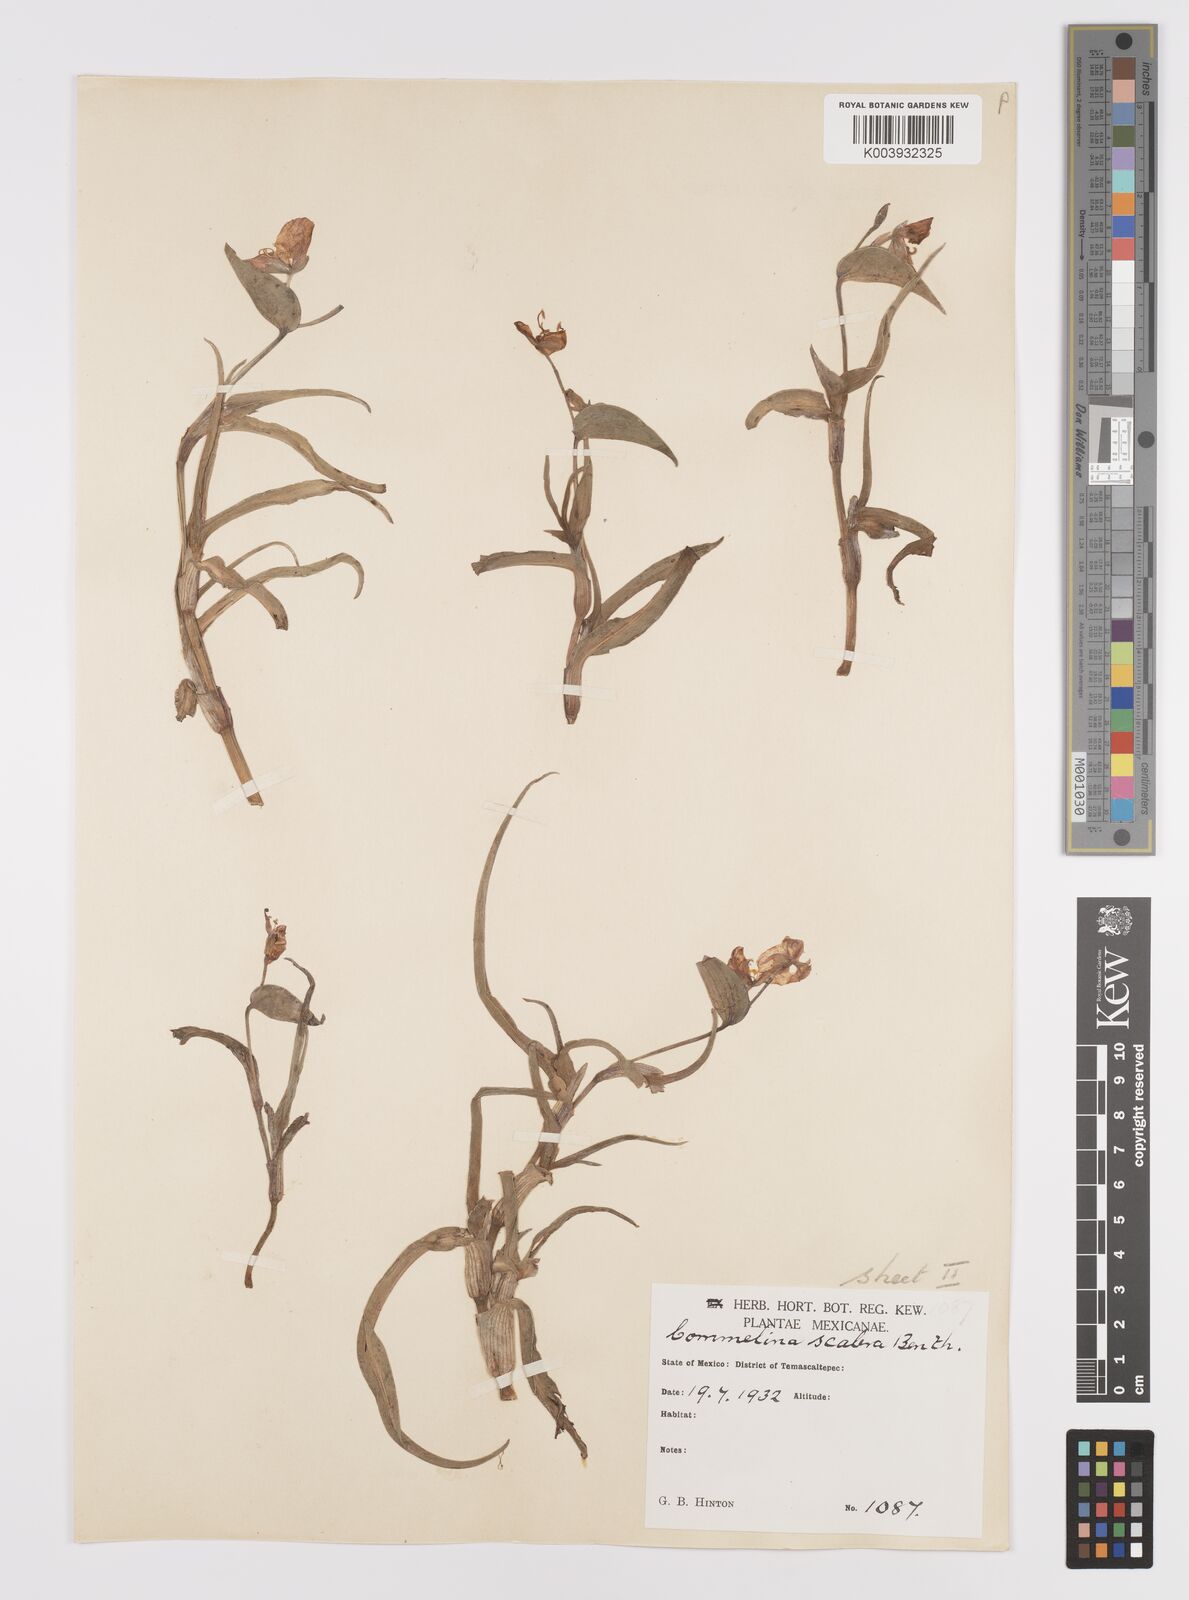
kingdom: Plantae
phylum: Tracheophyta
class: Liliopsida
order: Commelinales
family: Commelinaceae
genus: Commelina
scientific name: Commelina scabra
